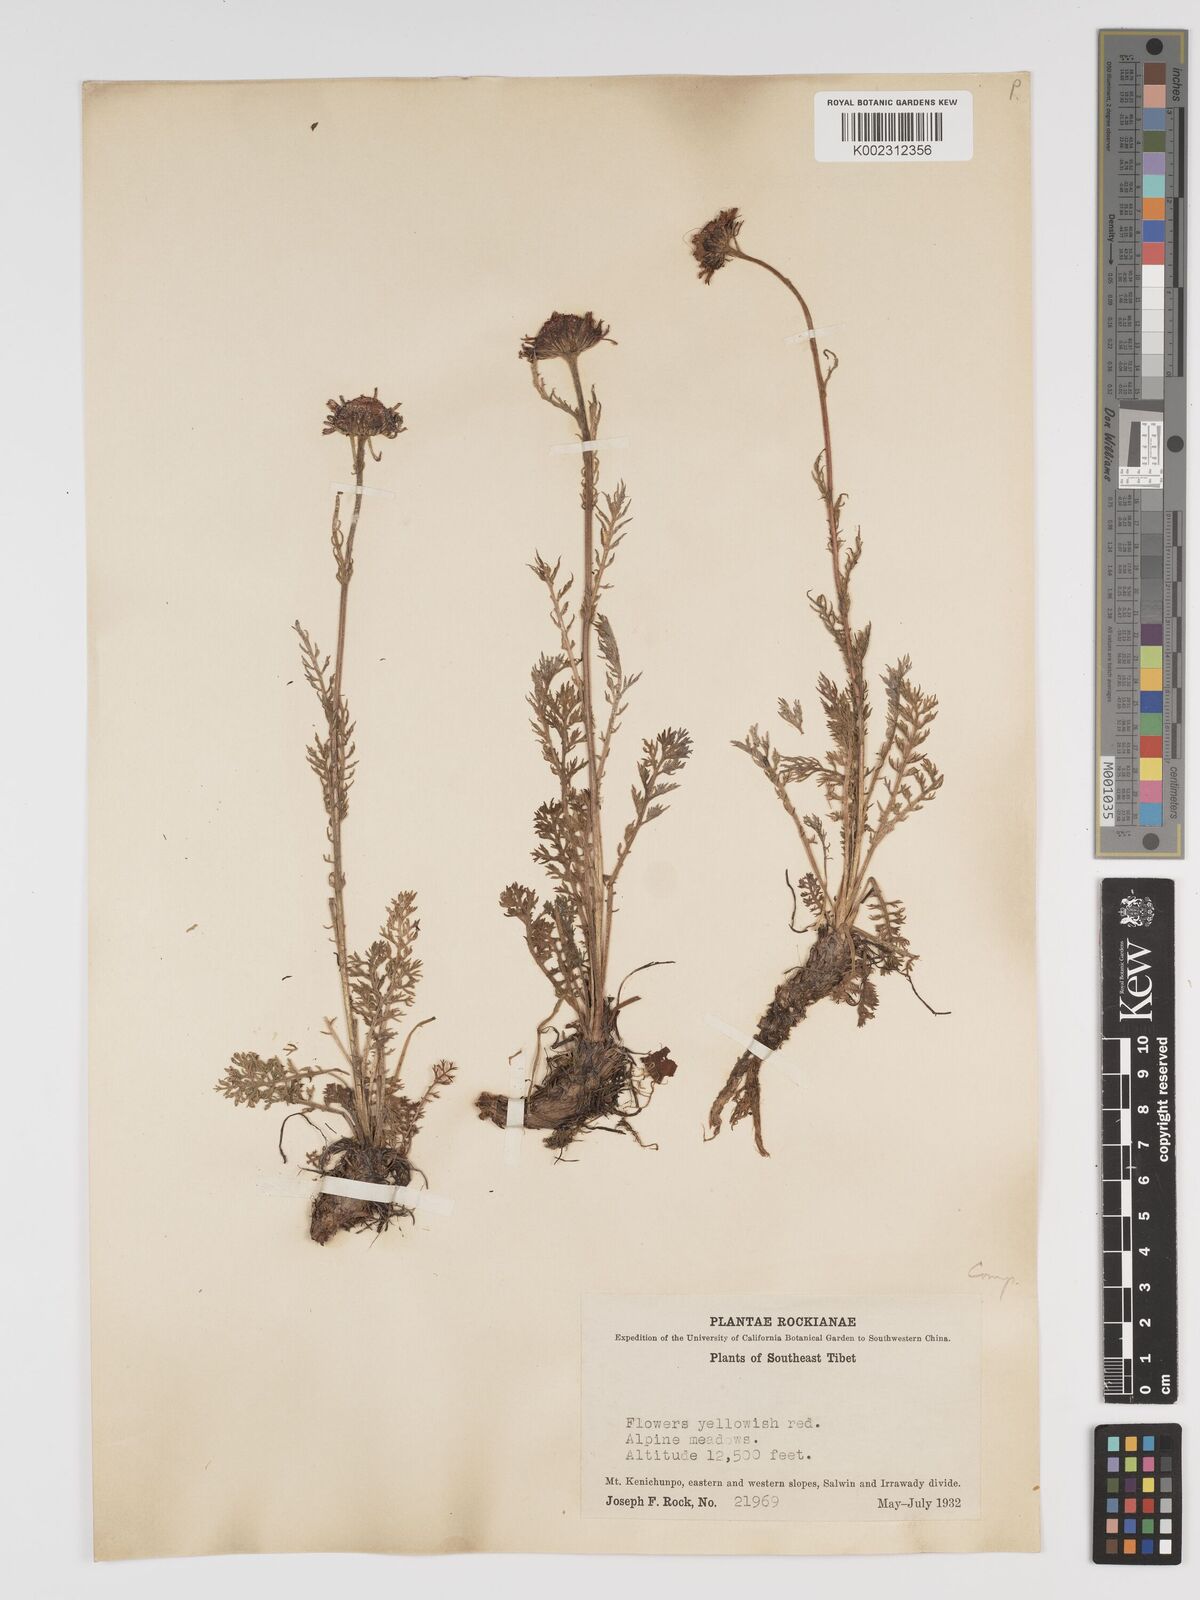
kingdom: Plantae
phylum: Tracheophyta
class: Magnoliopsida
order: Asterales
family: Asteraceae
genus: Tanacetum
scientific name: Tanacetum tatsienense
